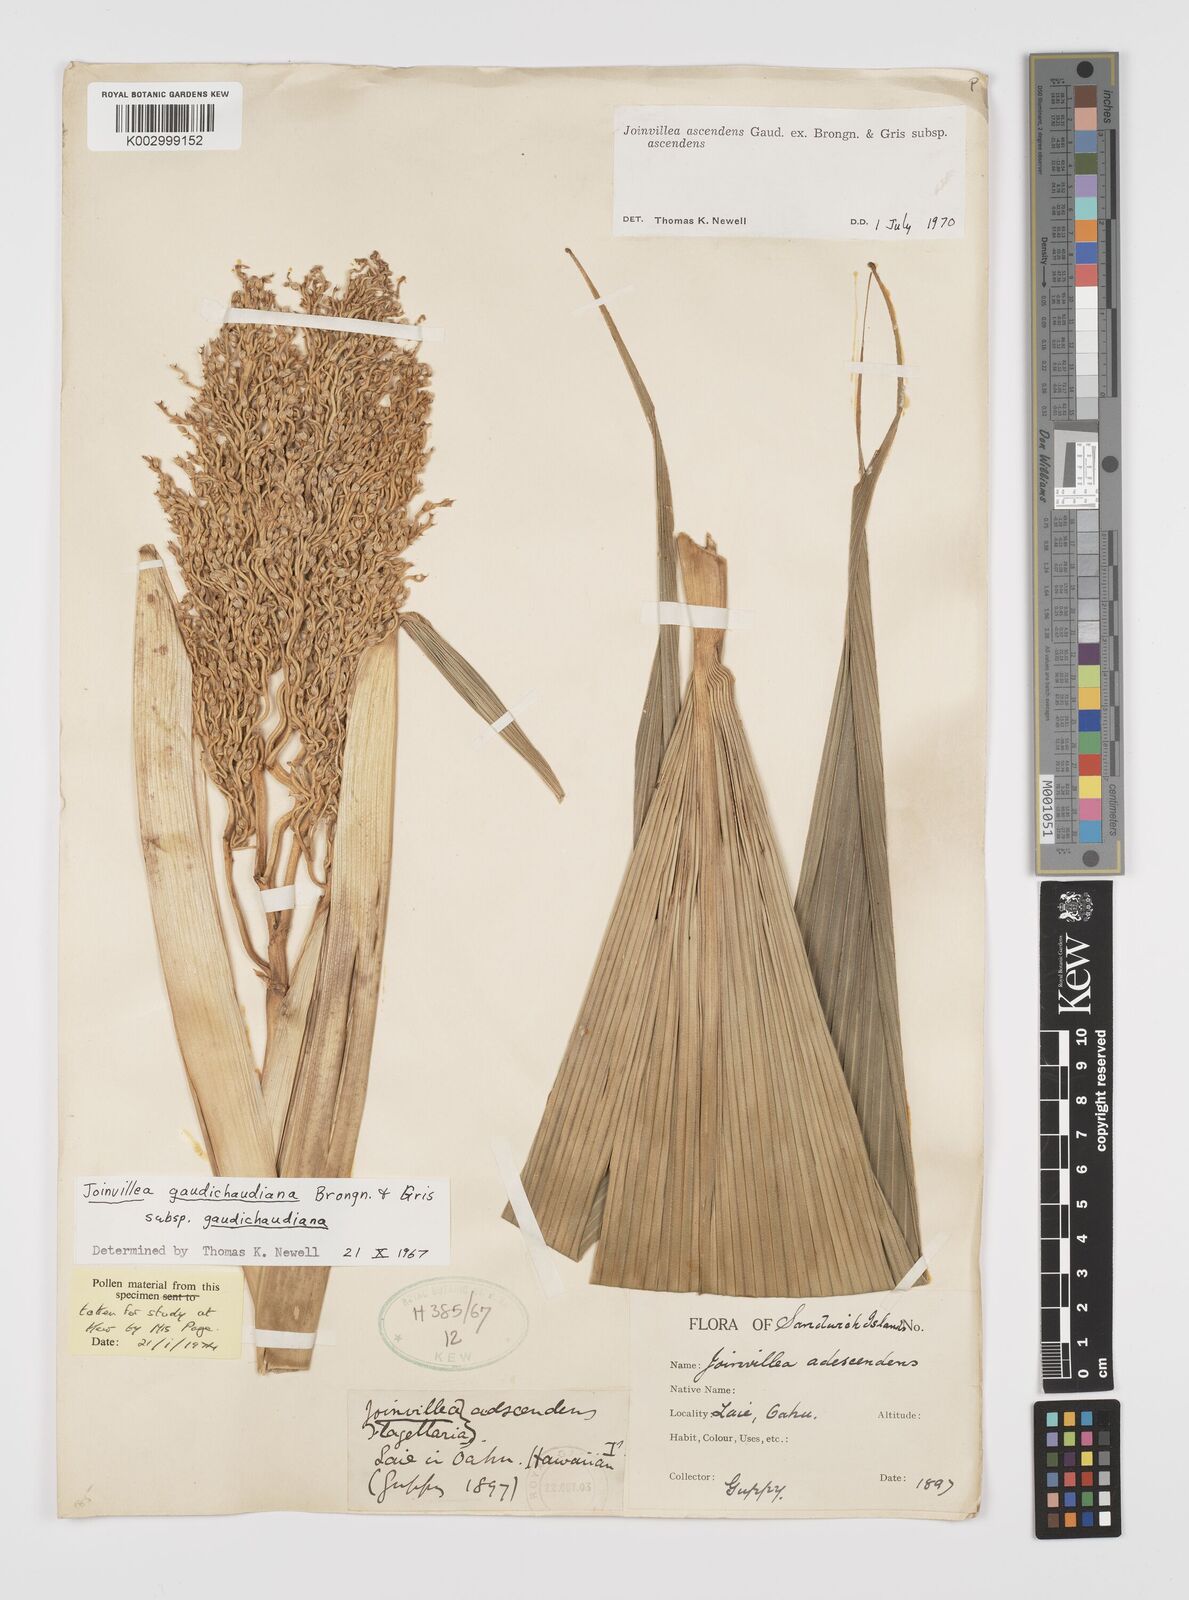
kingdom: Plantae
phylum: Tracheophyta
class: Liliopsida
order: Poales
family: Joinvilleaceae
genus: Joinvillea
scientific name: Joinvillea ascendens
